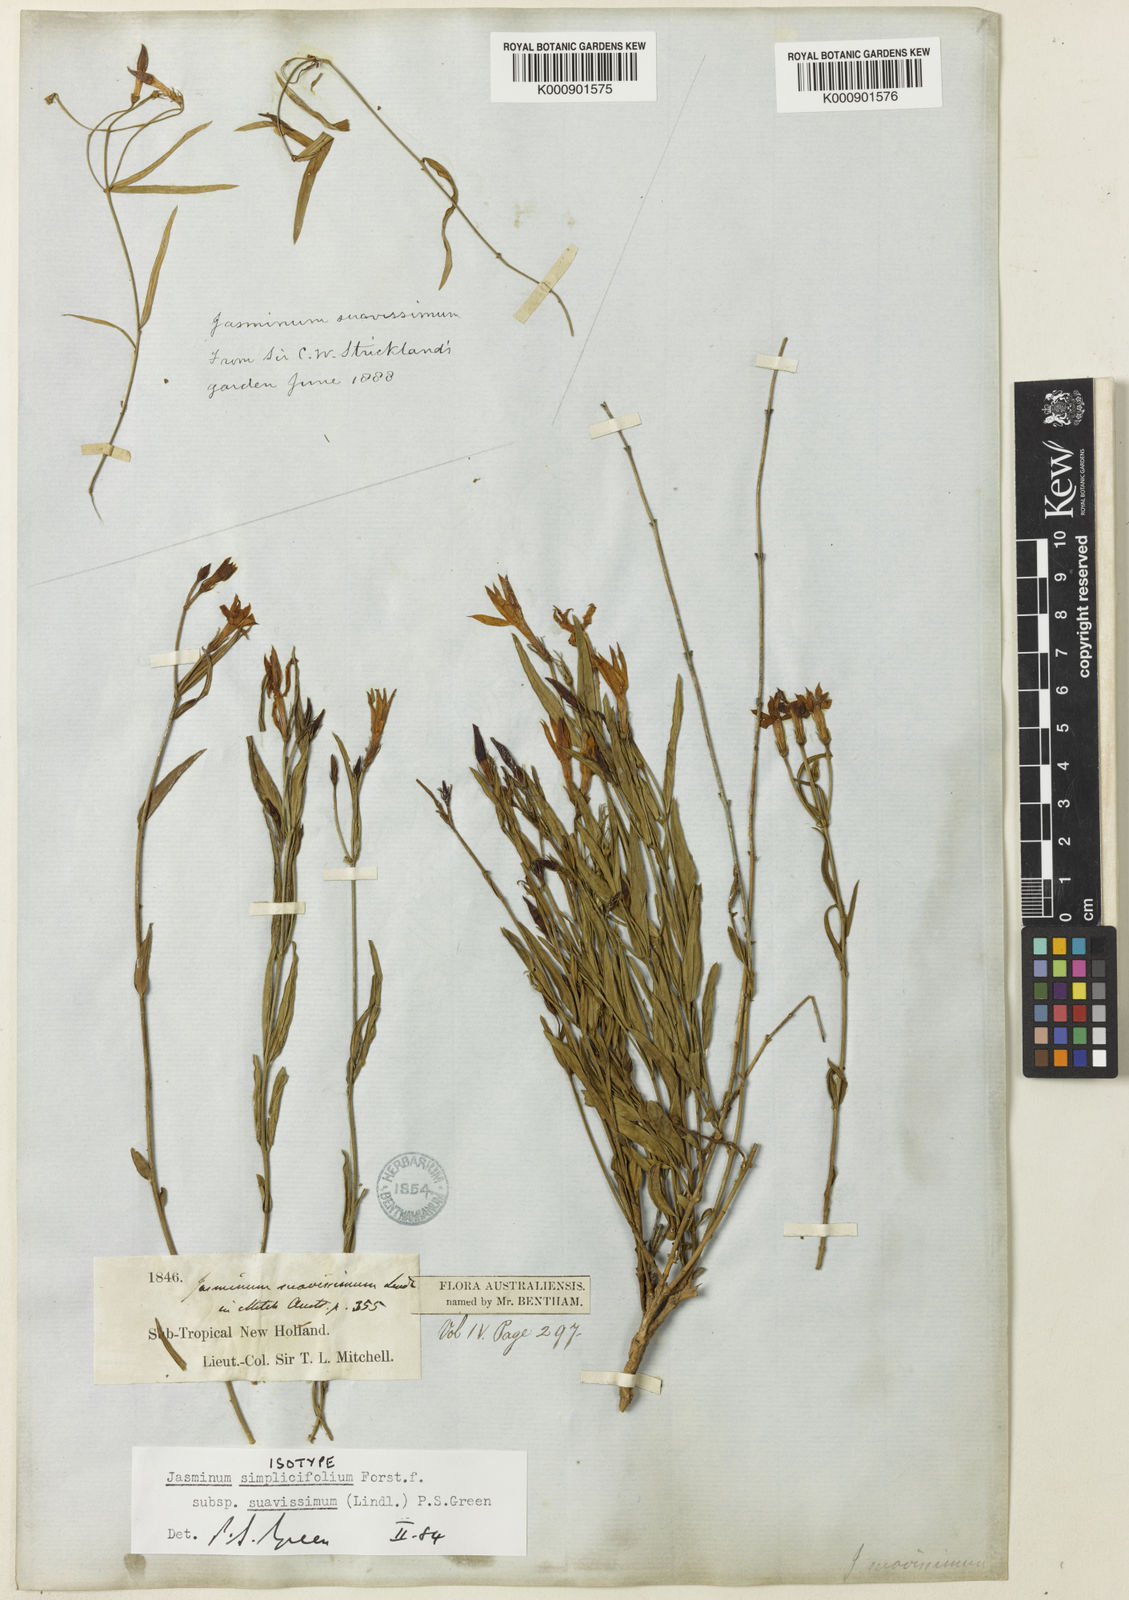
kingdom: Plantae
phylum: Tracheophyta
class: Magnoliopsida
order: Lamiales
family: Oleaceae
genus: Jasminum
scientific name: Jasminum simplicifolium
